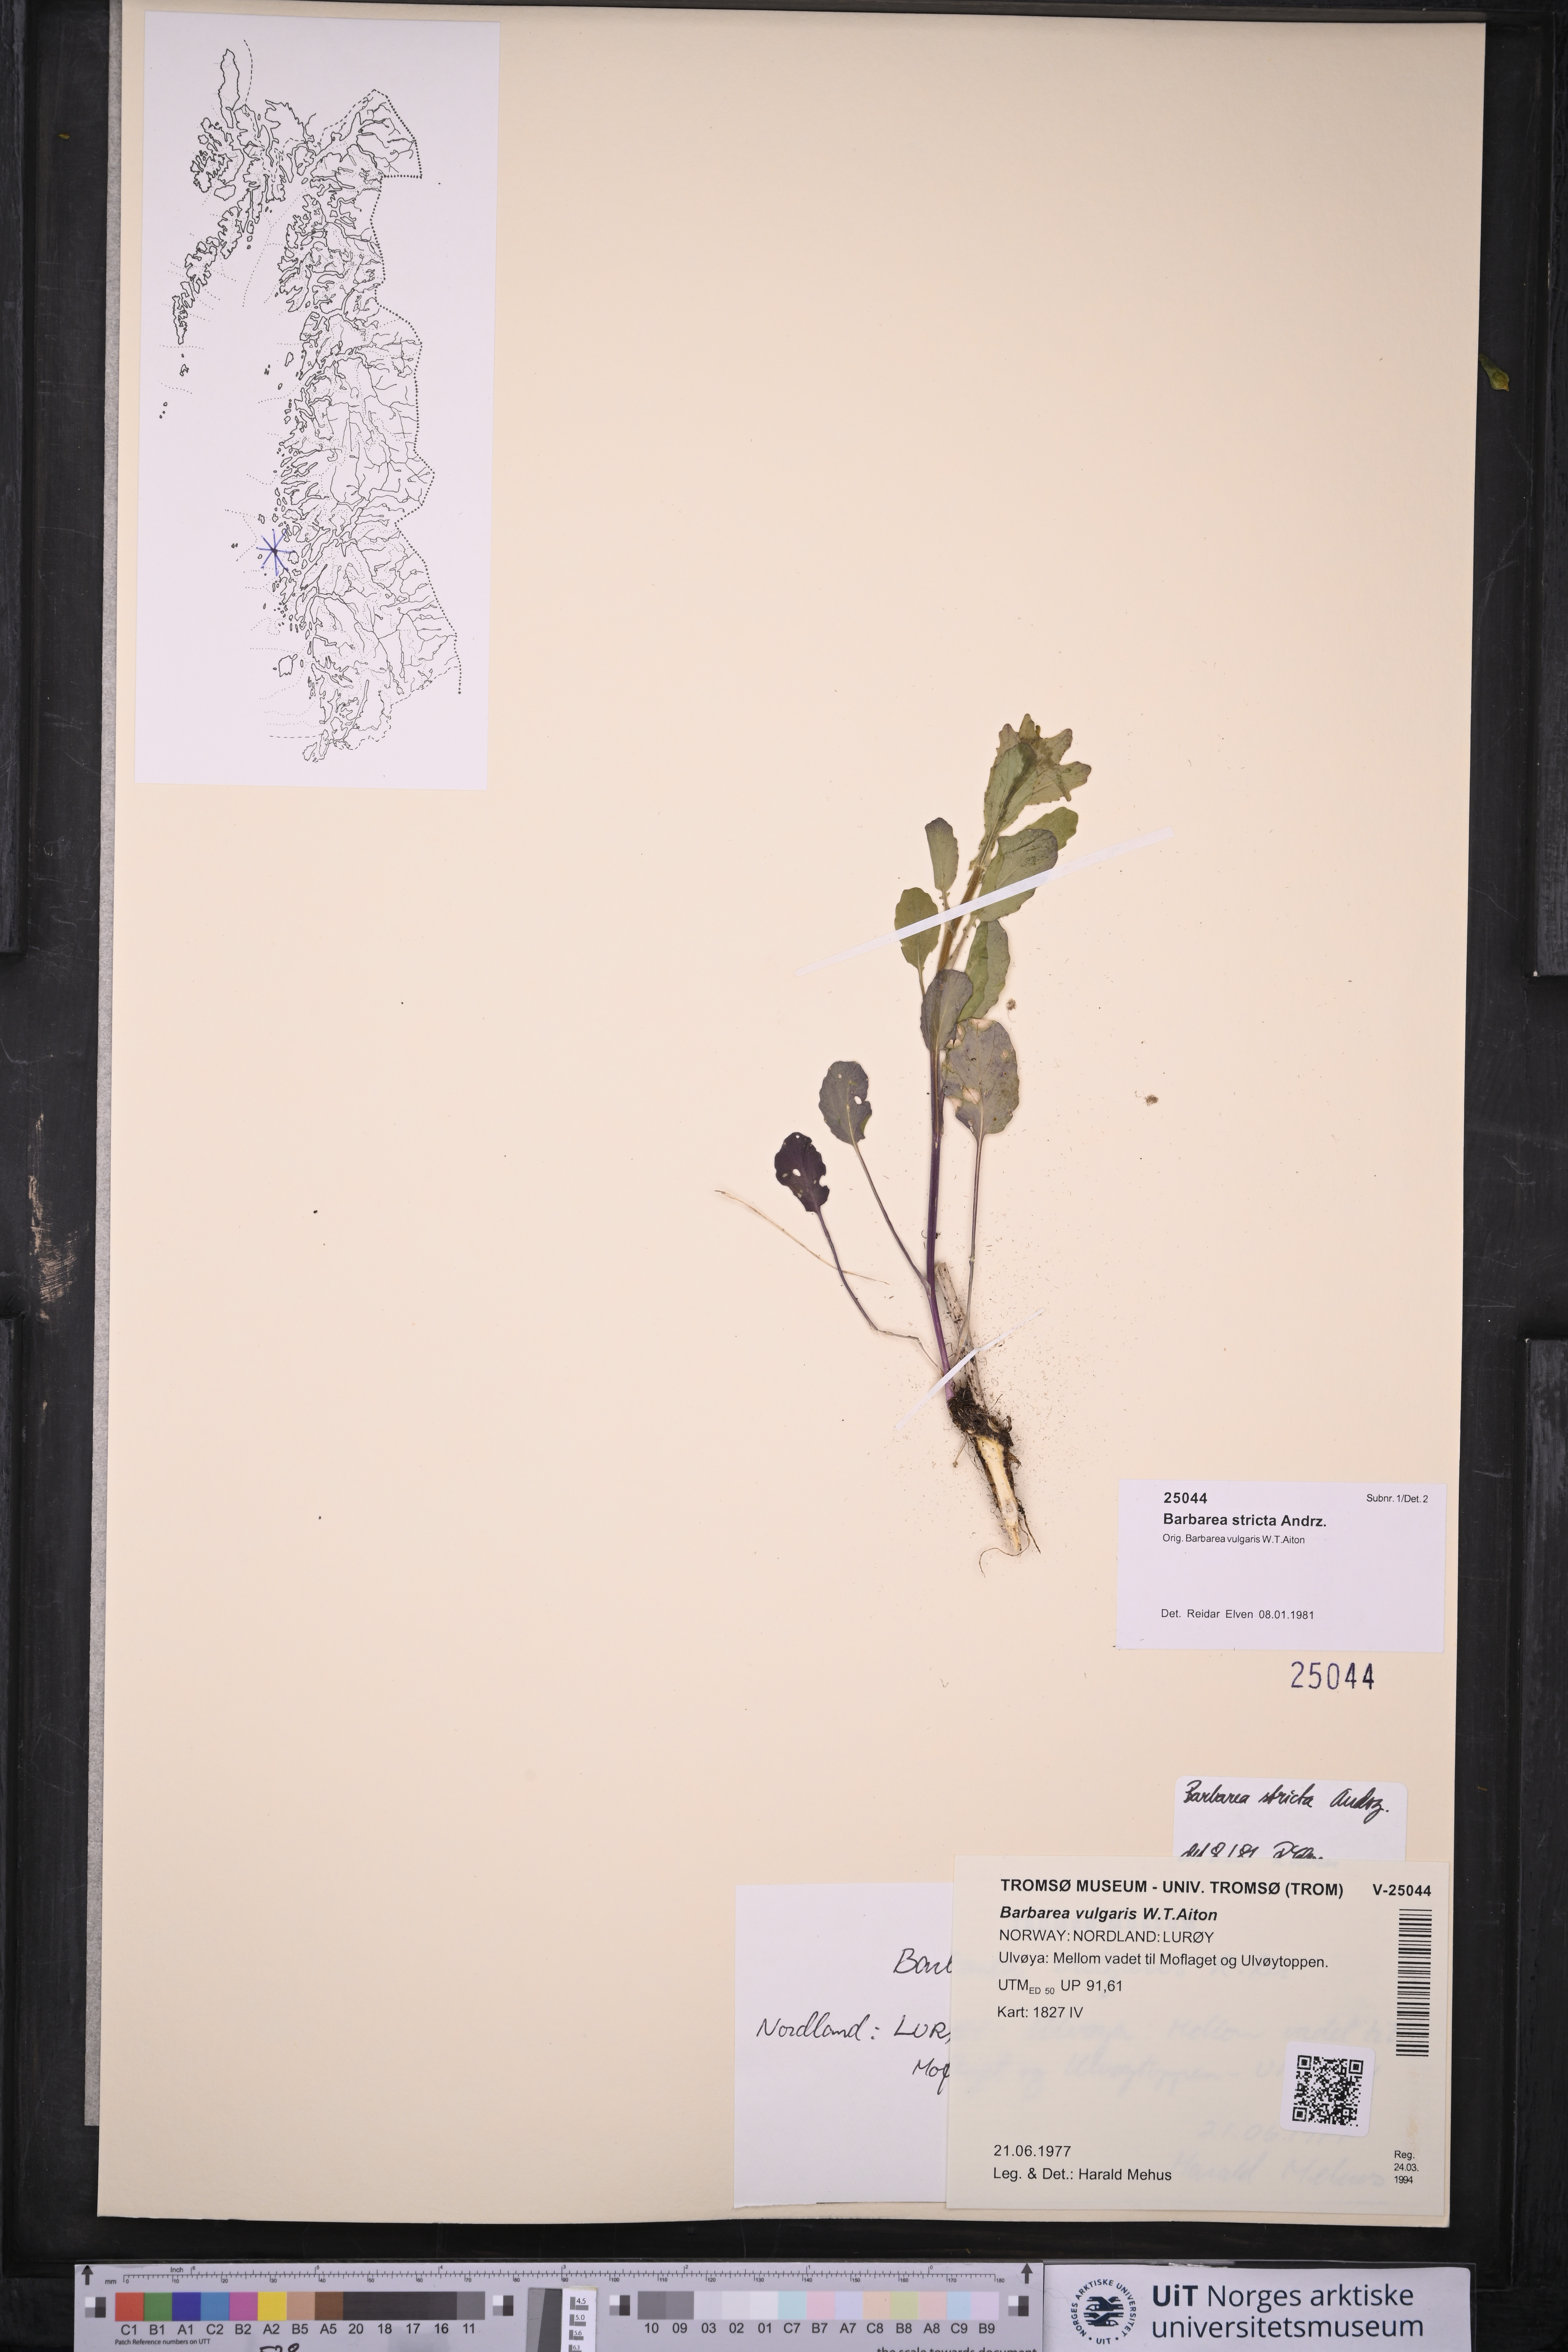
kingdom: Plantae
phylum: Tracheophyta
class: Magnoliopsida
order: Brassicales
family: Brassicaceae
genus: Barbarea
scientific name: Barbarea stricta
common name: Small-flowered winter-cress
